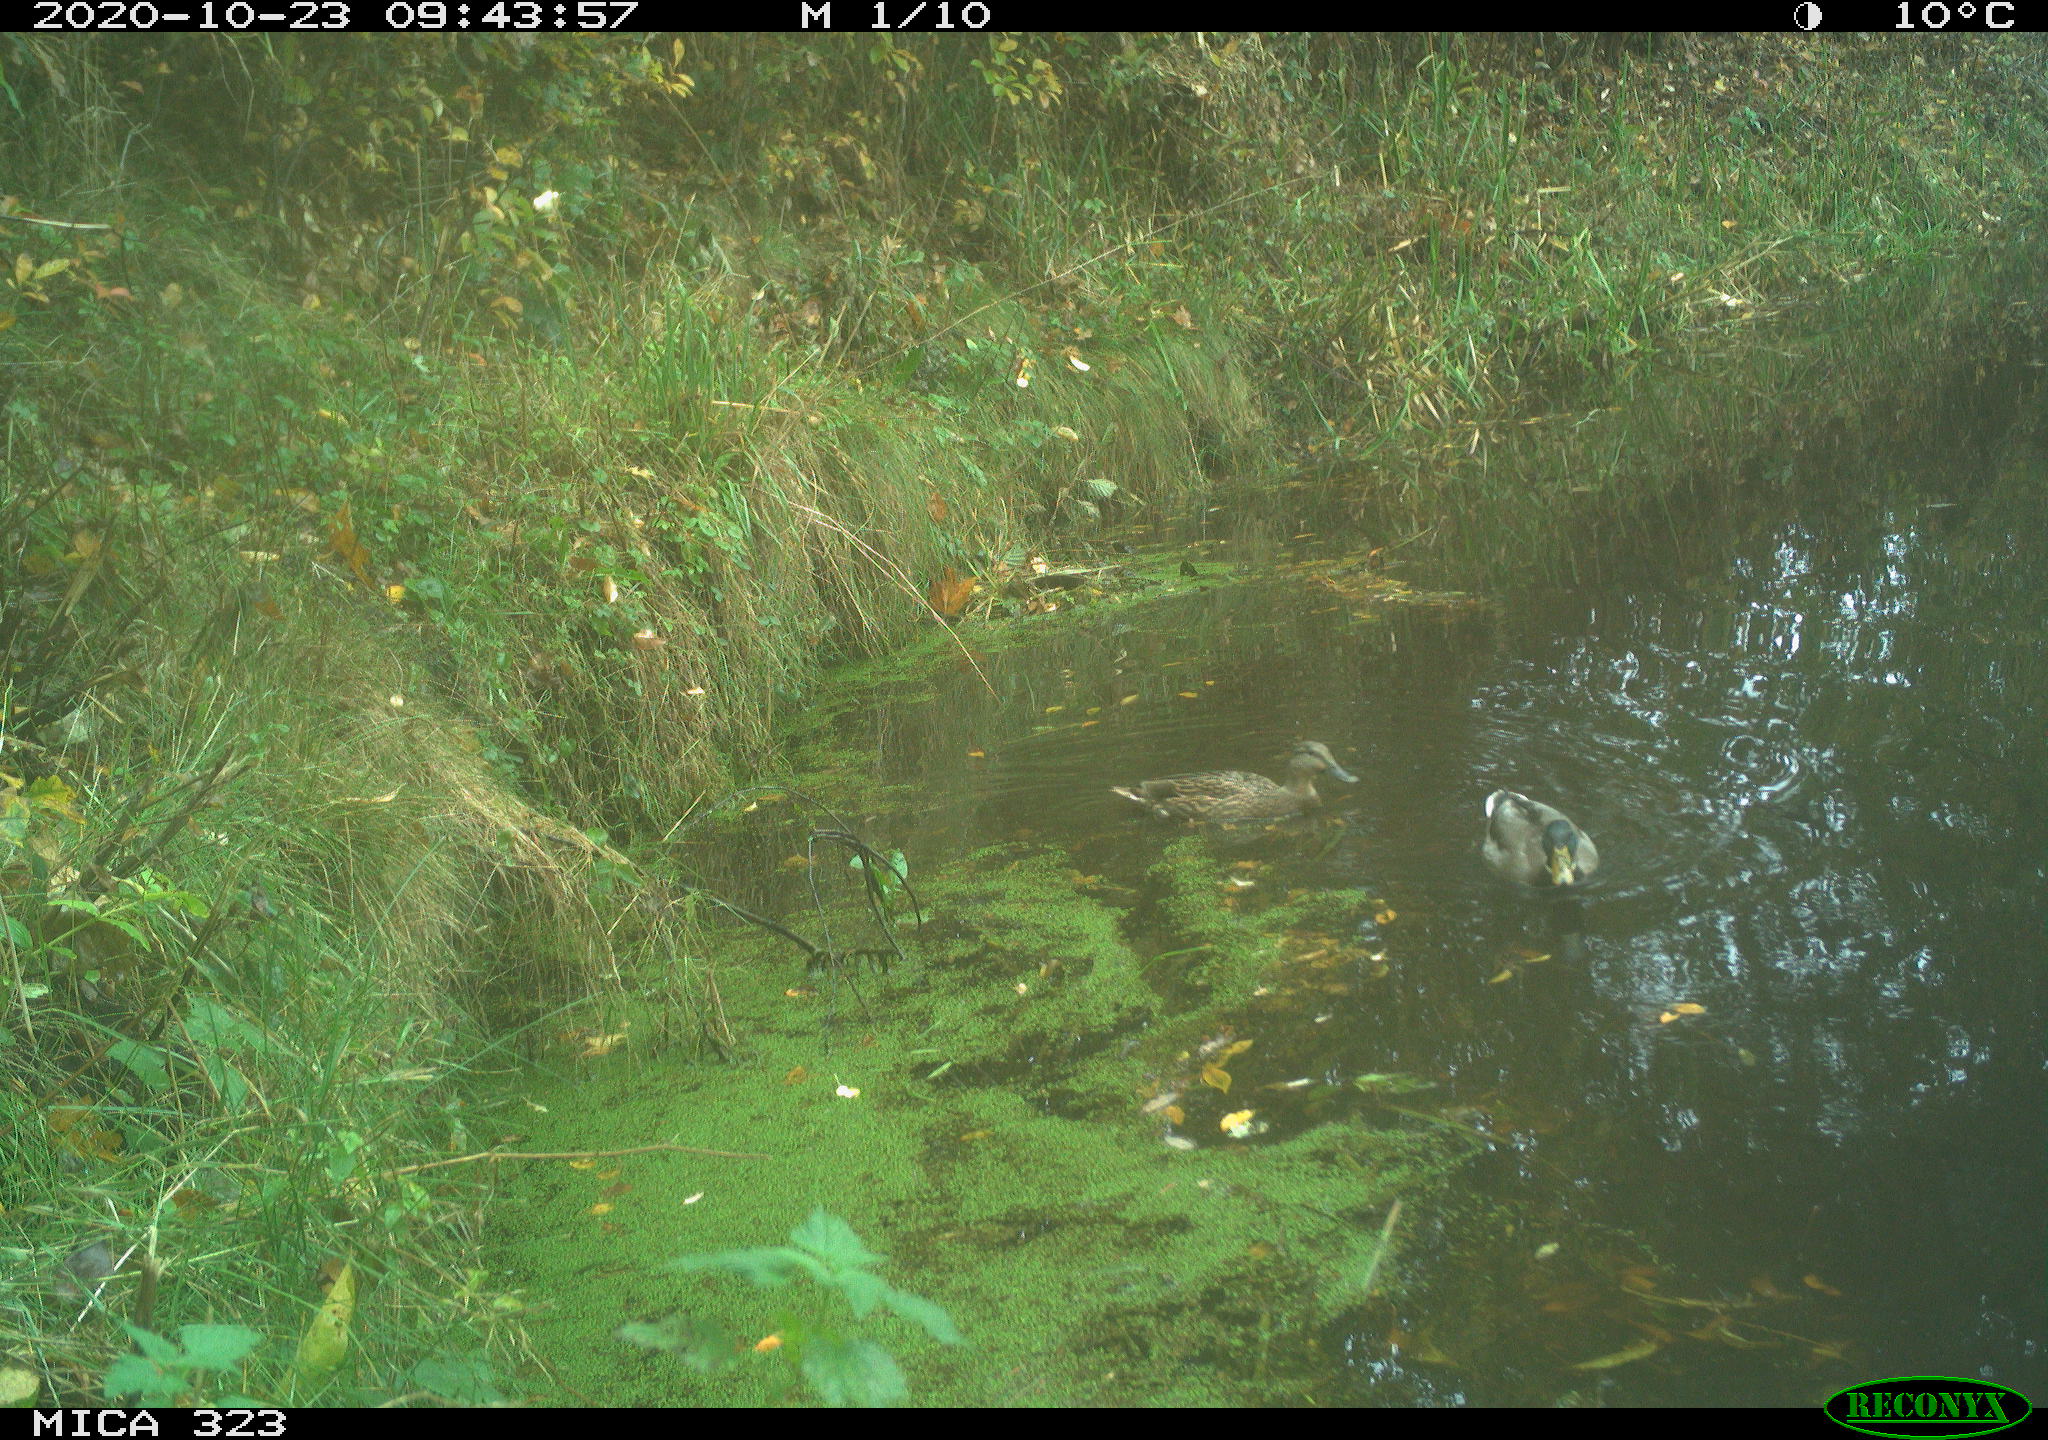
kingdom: Animalia
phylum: Chordata
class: Aves
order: Anseriformes
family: Anatidae
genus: Anas
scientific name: Anas platyrhynchos
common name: Mallard
